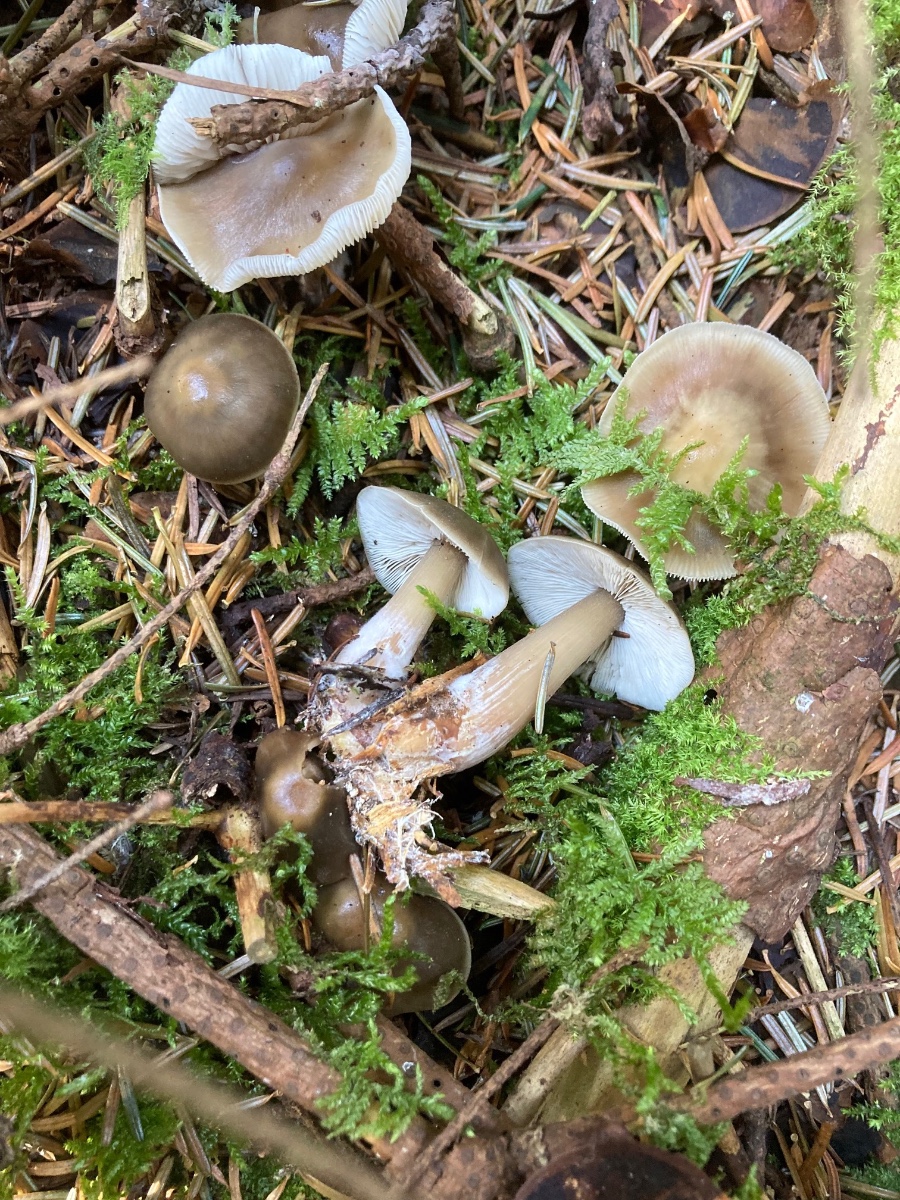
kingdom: Fungi
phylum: Basidiomycota
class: Agaricomycetes
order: Agaricales
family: Omphalotaceae
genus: Rhodocollybia
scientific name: Rhodocollybia asema
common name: horngrå fladhat
